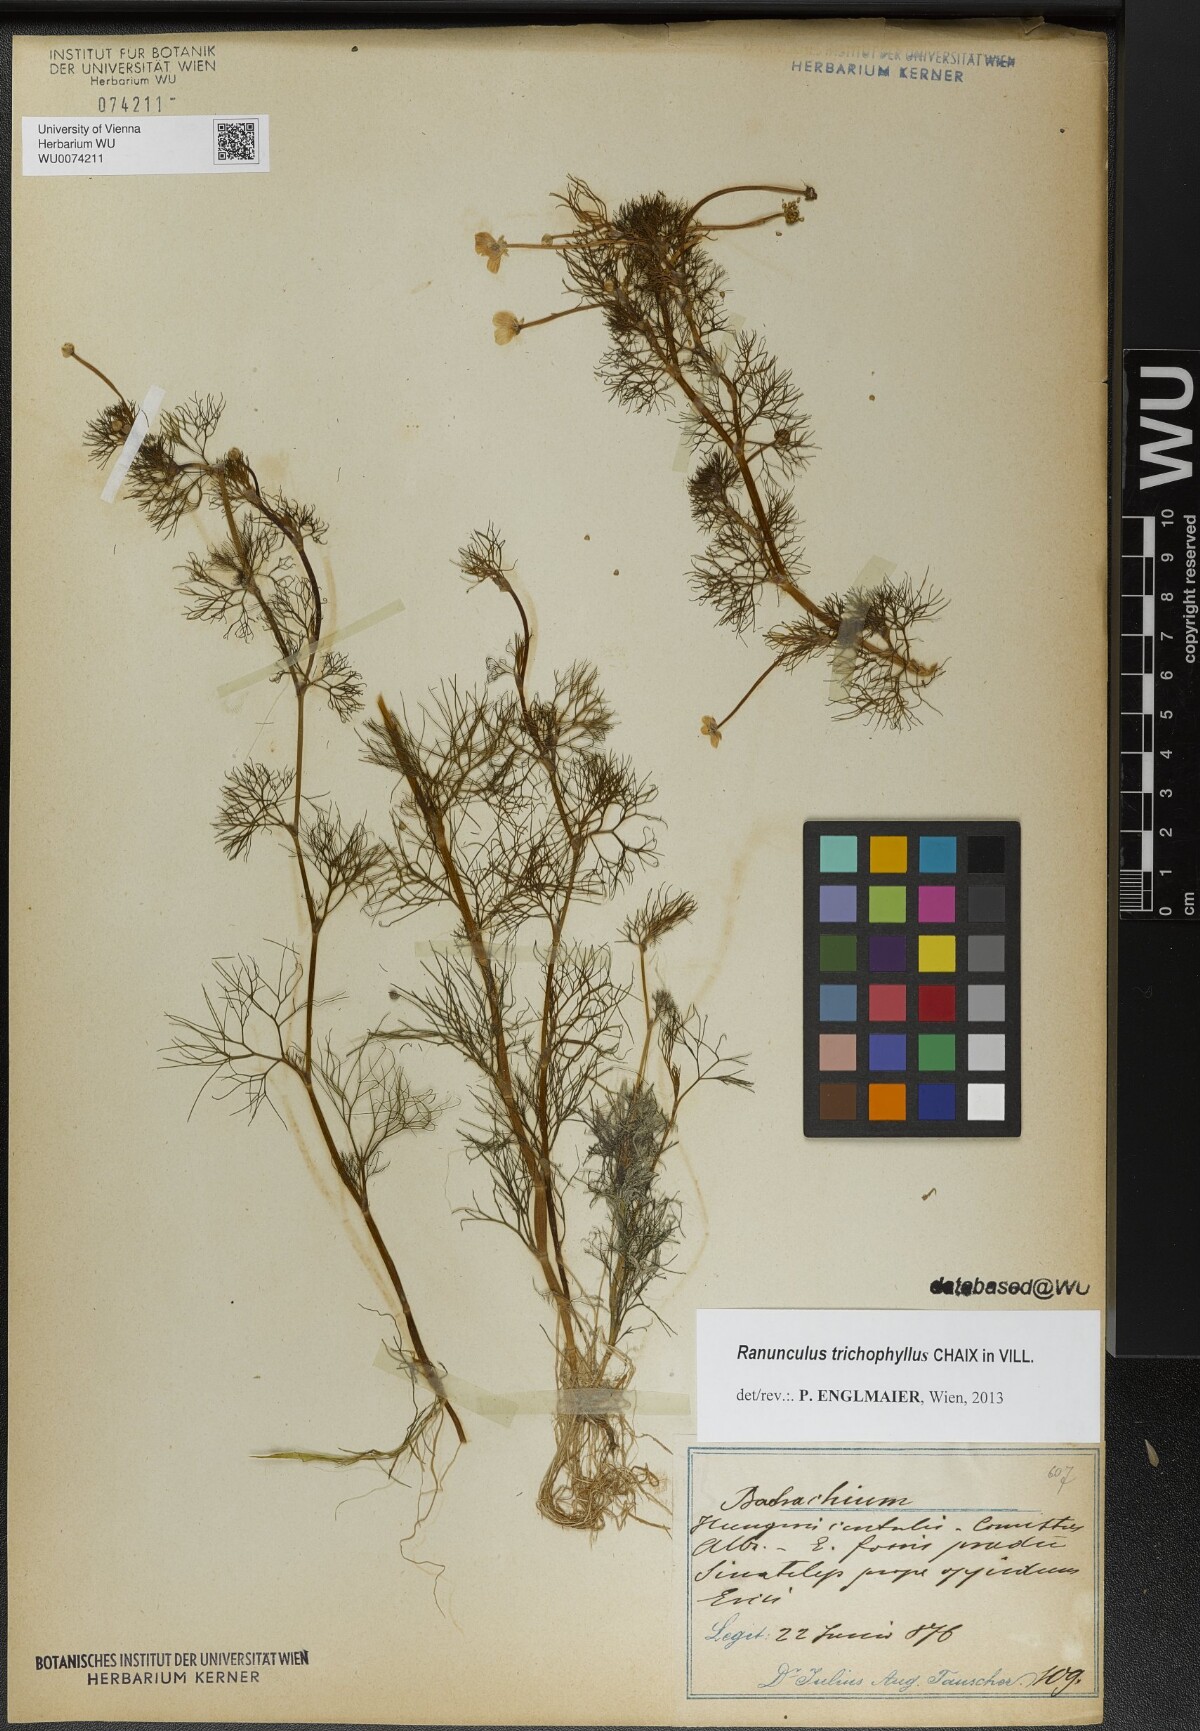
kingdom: Plantae
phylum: Tracheophyta
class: Magnoliopsida
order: Ranunculales
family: Ranunculaceae
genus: Ranunculus
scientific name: Ranunculus trichophyllus
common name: Thread-leaved water-crowfoot
